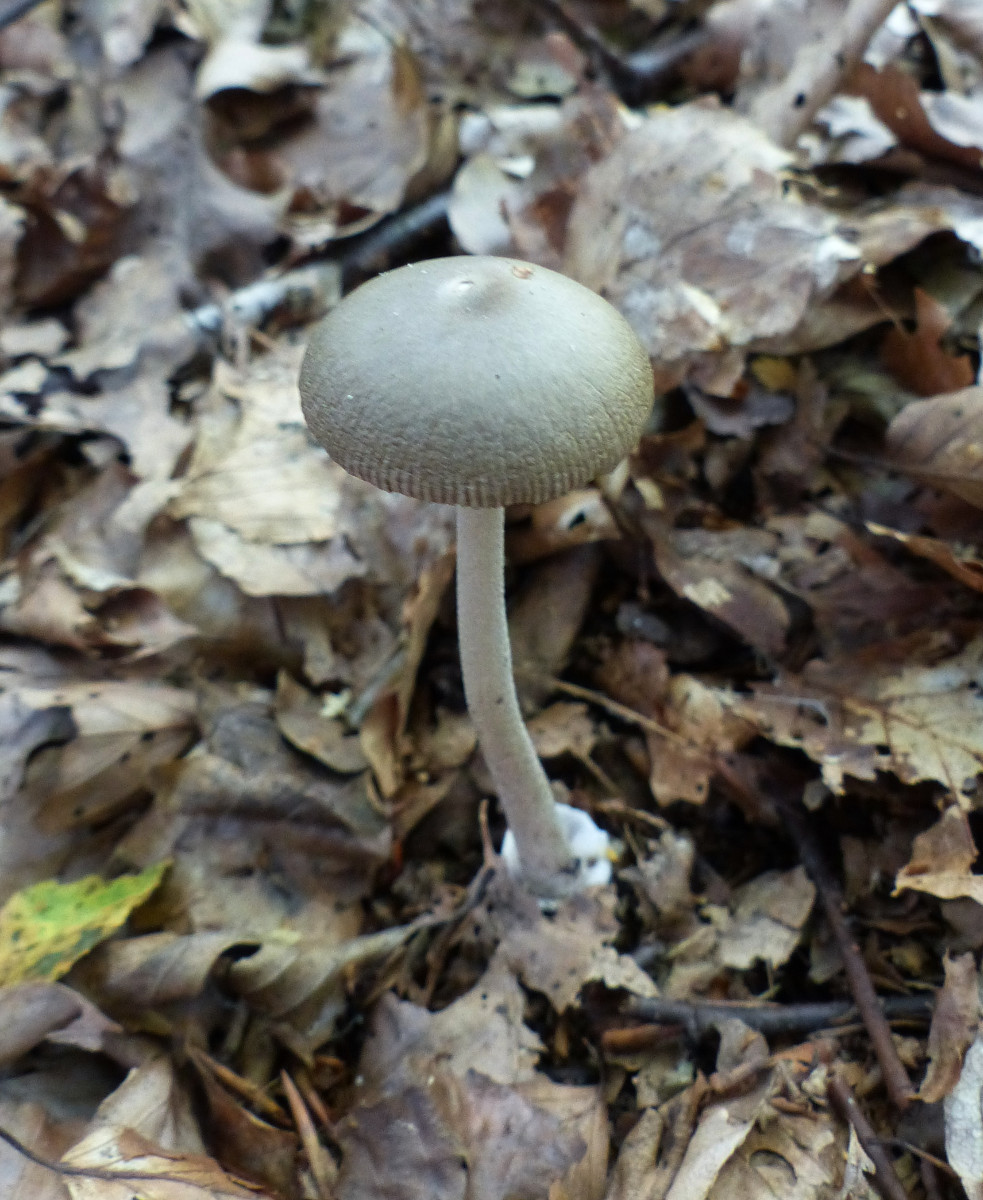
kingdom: Fungi
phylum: Basidiomycota
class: Agaricomycetes
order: Agaricales
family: Amanitaceae
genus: Amanita
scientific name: Amanita vaginata
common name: grå kam-fluesvamp
